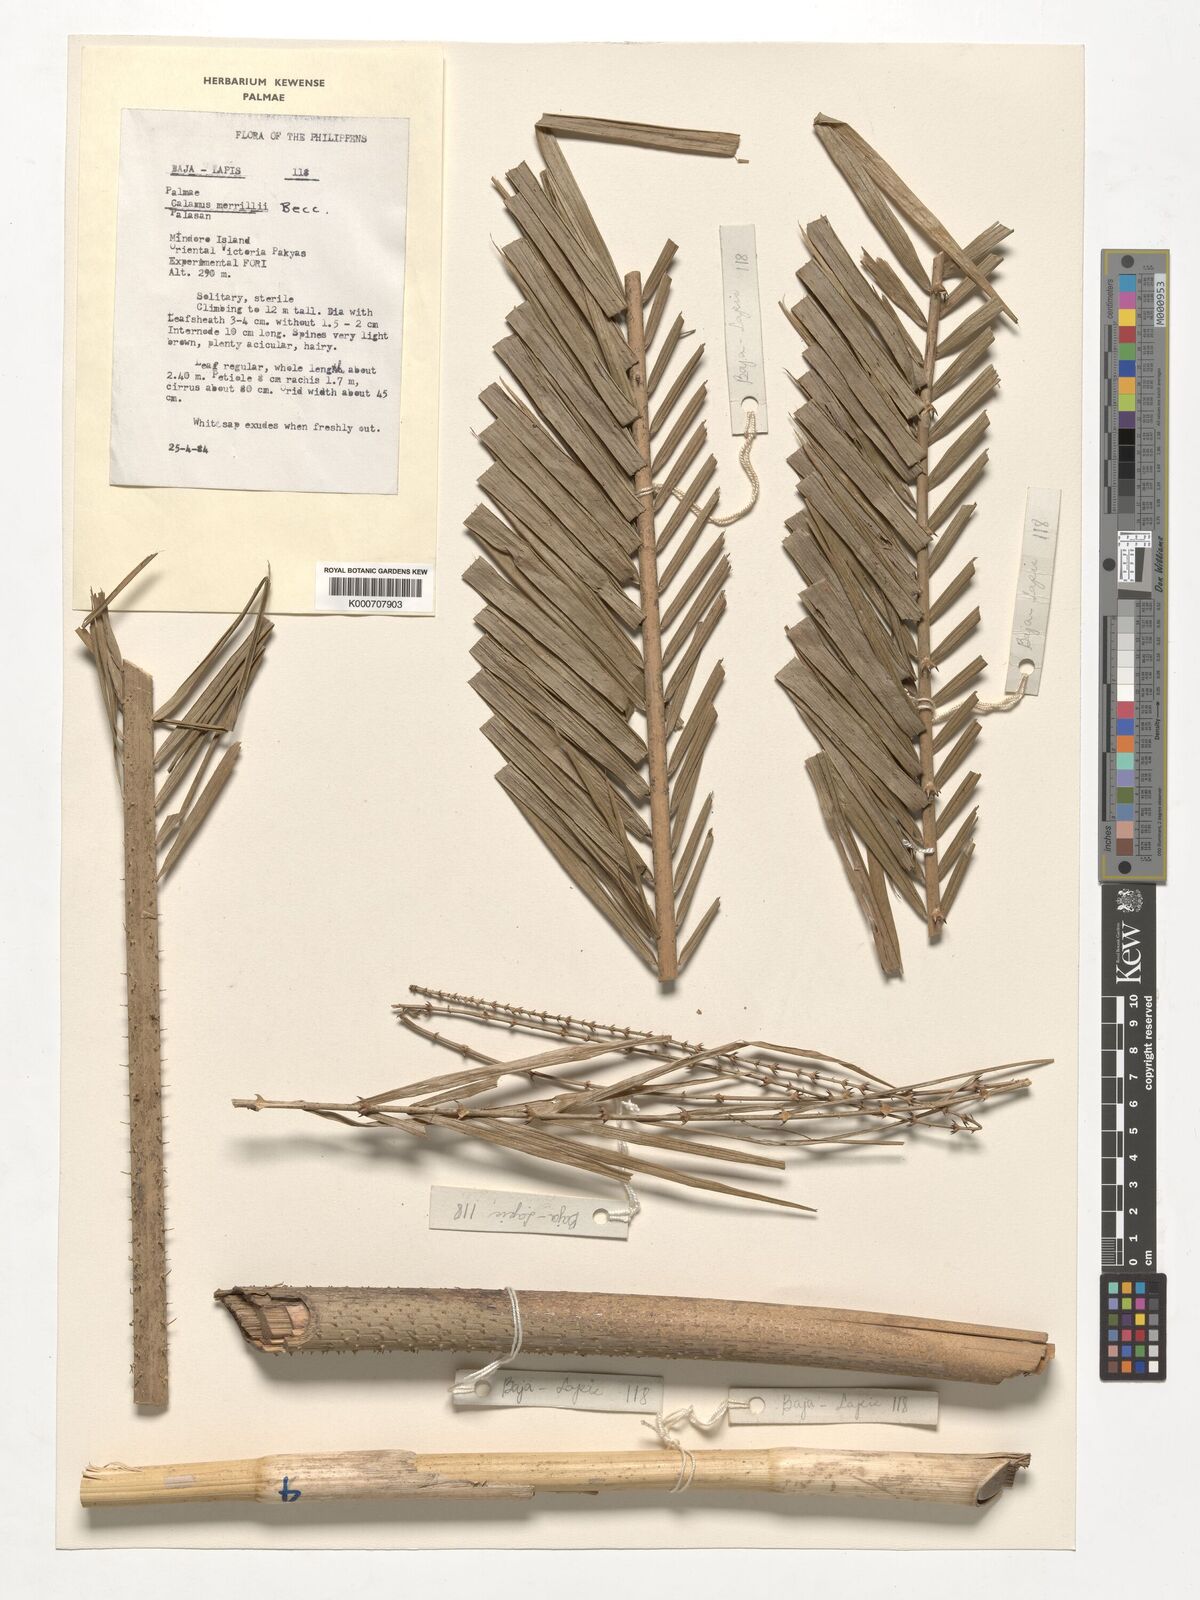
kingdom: Plantae
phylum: Tracheophyta
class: Liliopsida
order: Arecales
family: Arecaceae
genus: Calamus
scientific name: Calamus zollingeri
